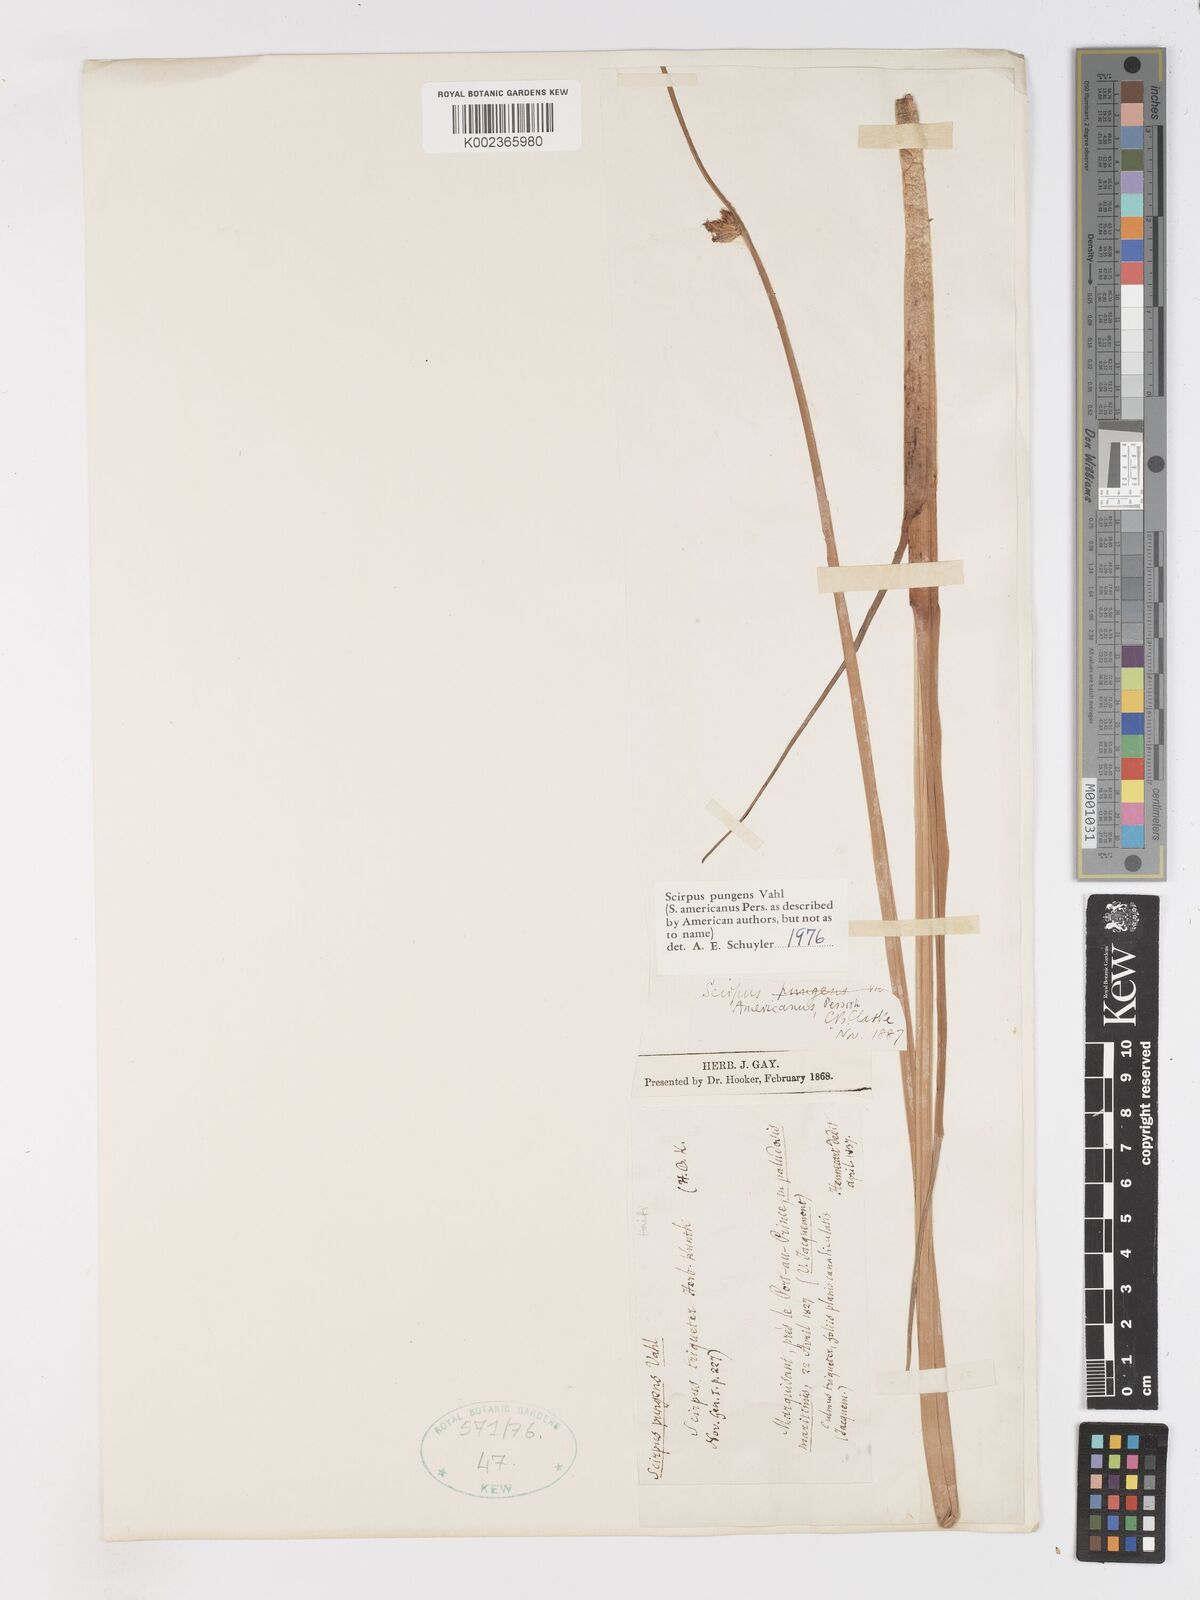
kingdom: Plantae
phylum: Tracheophyta
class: Liliopsida
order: Poales
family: Cyperaceae
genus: Schoenoplectus
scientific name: Schoenoplectus pungens
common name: Sharp club-rush
